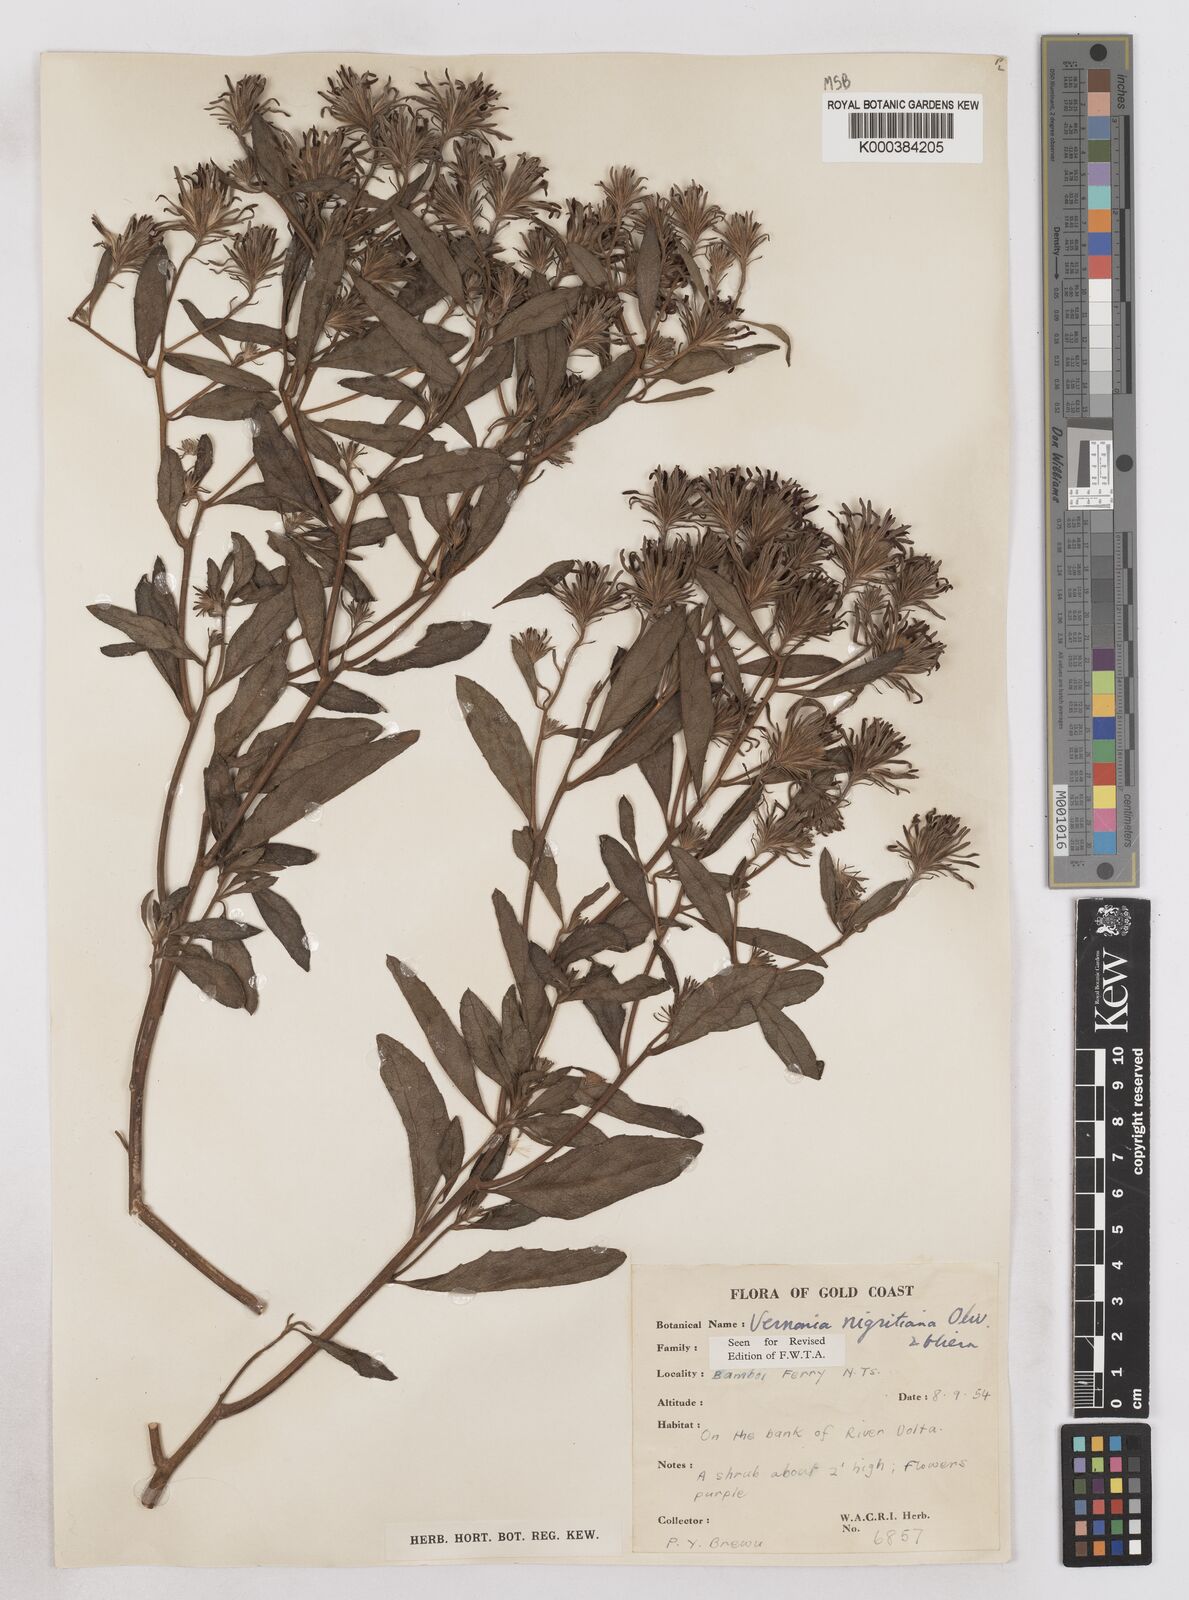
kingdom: Plantae
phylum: Tracheophyta
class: Magnoliopsida
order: Asterales
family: Asteraceae
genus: Linzia
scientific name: Linzia nigritiana
